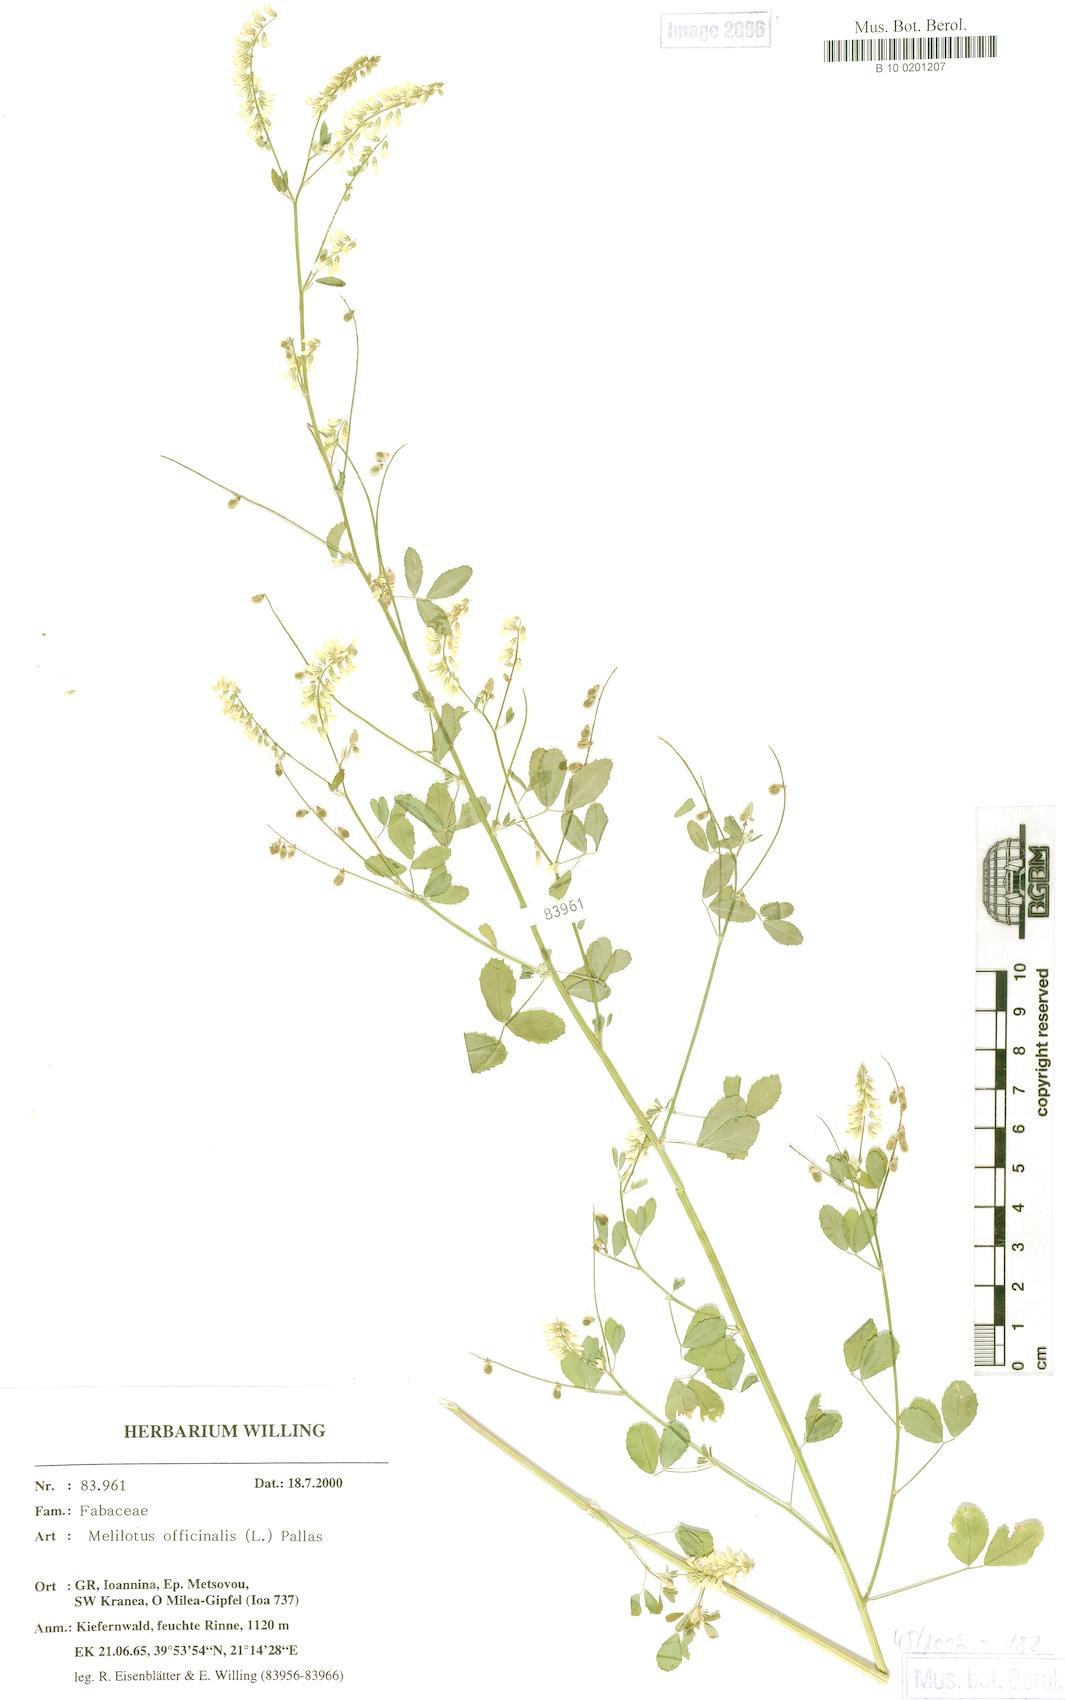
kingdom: Plantae
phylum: Tracheophyta
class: Magnoliopsida
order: Fabales
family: Fabaceae
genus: Melilotus
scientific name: Melilotus officinalis
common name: Sweetclover
